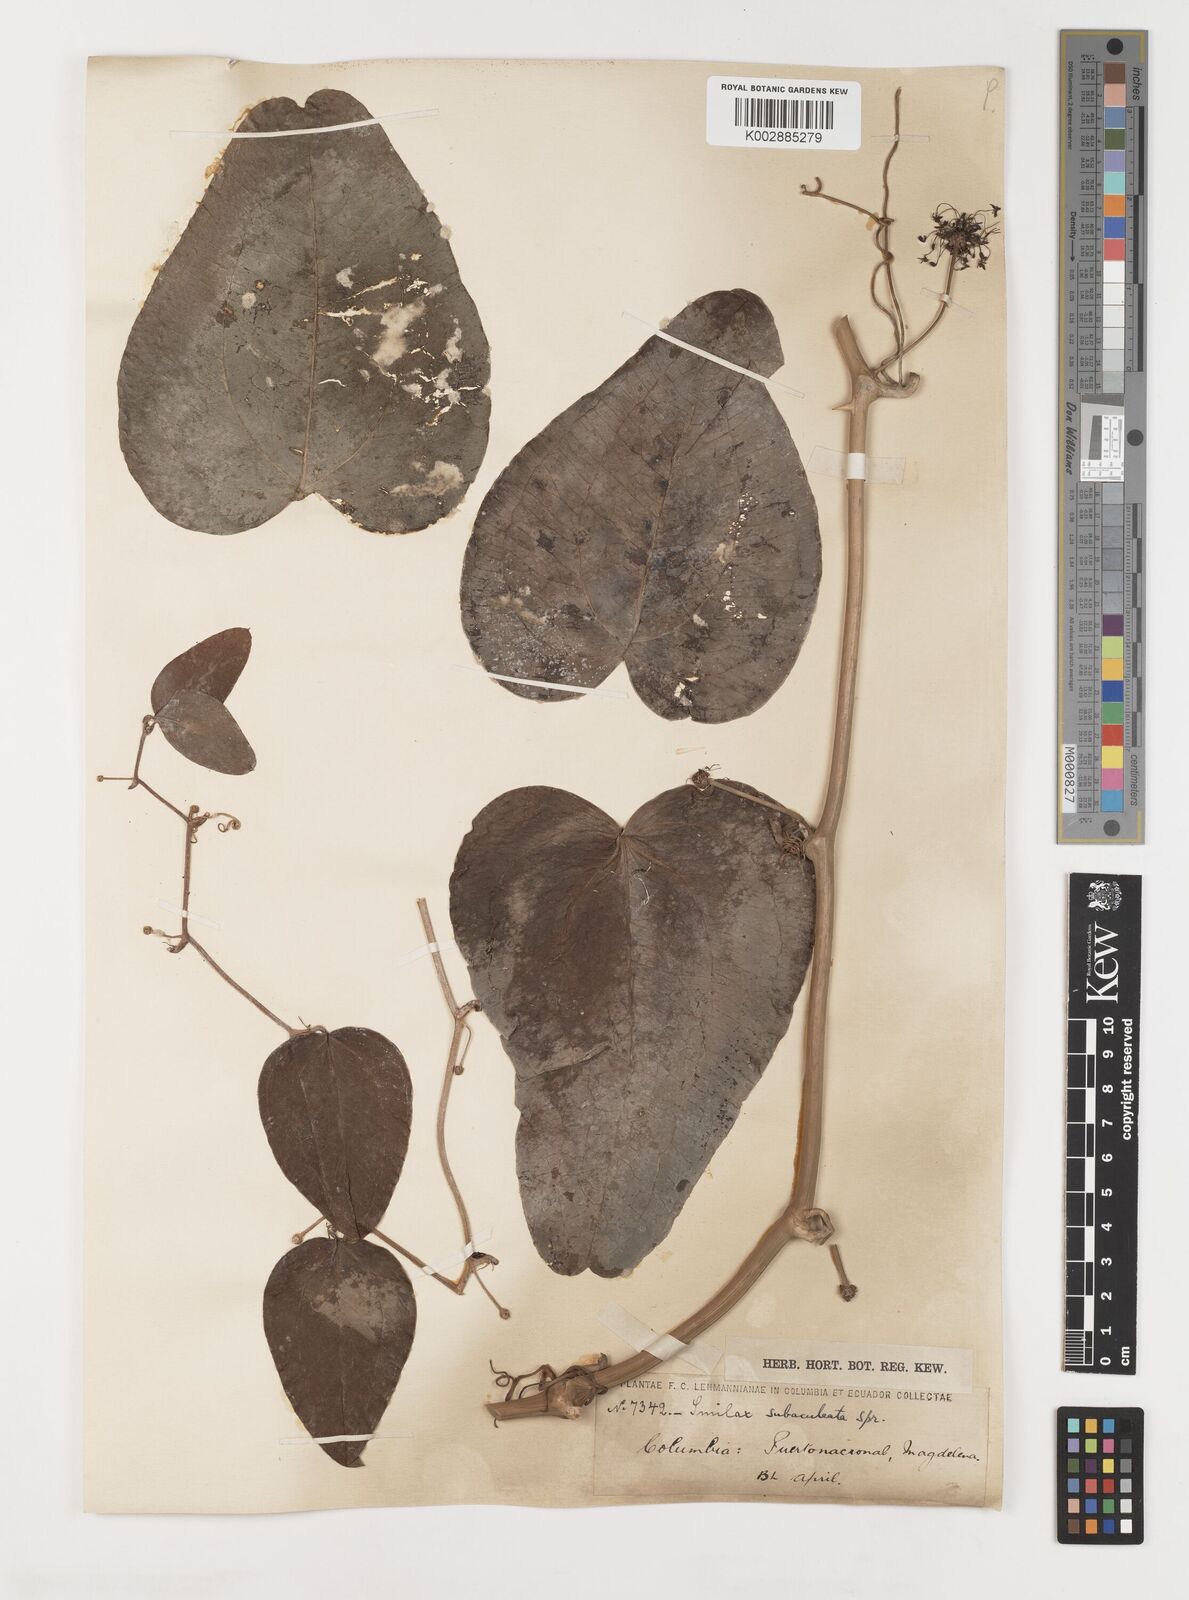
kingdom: Plantae
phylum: Tracheophyta
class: Liliopsida
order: Liliales
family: Smilacaceae
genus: Smilax
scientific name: Smilax canellifolia
